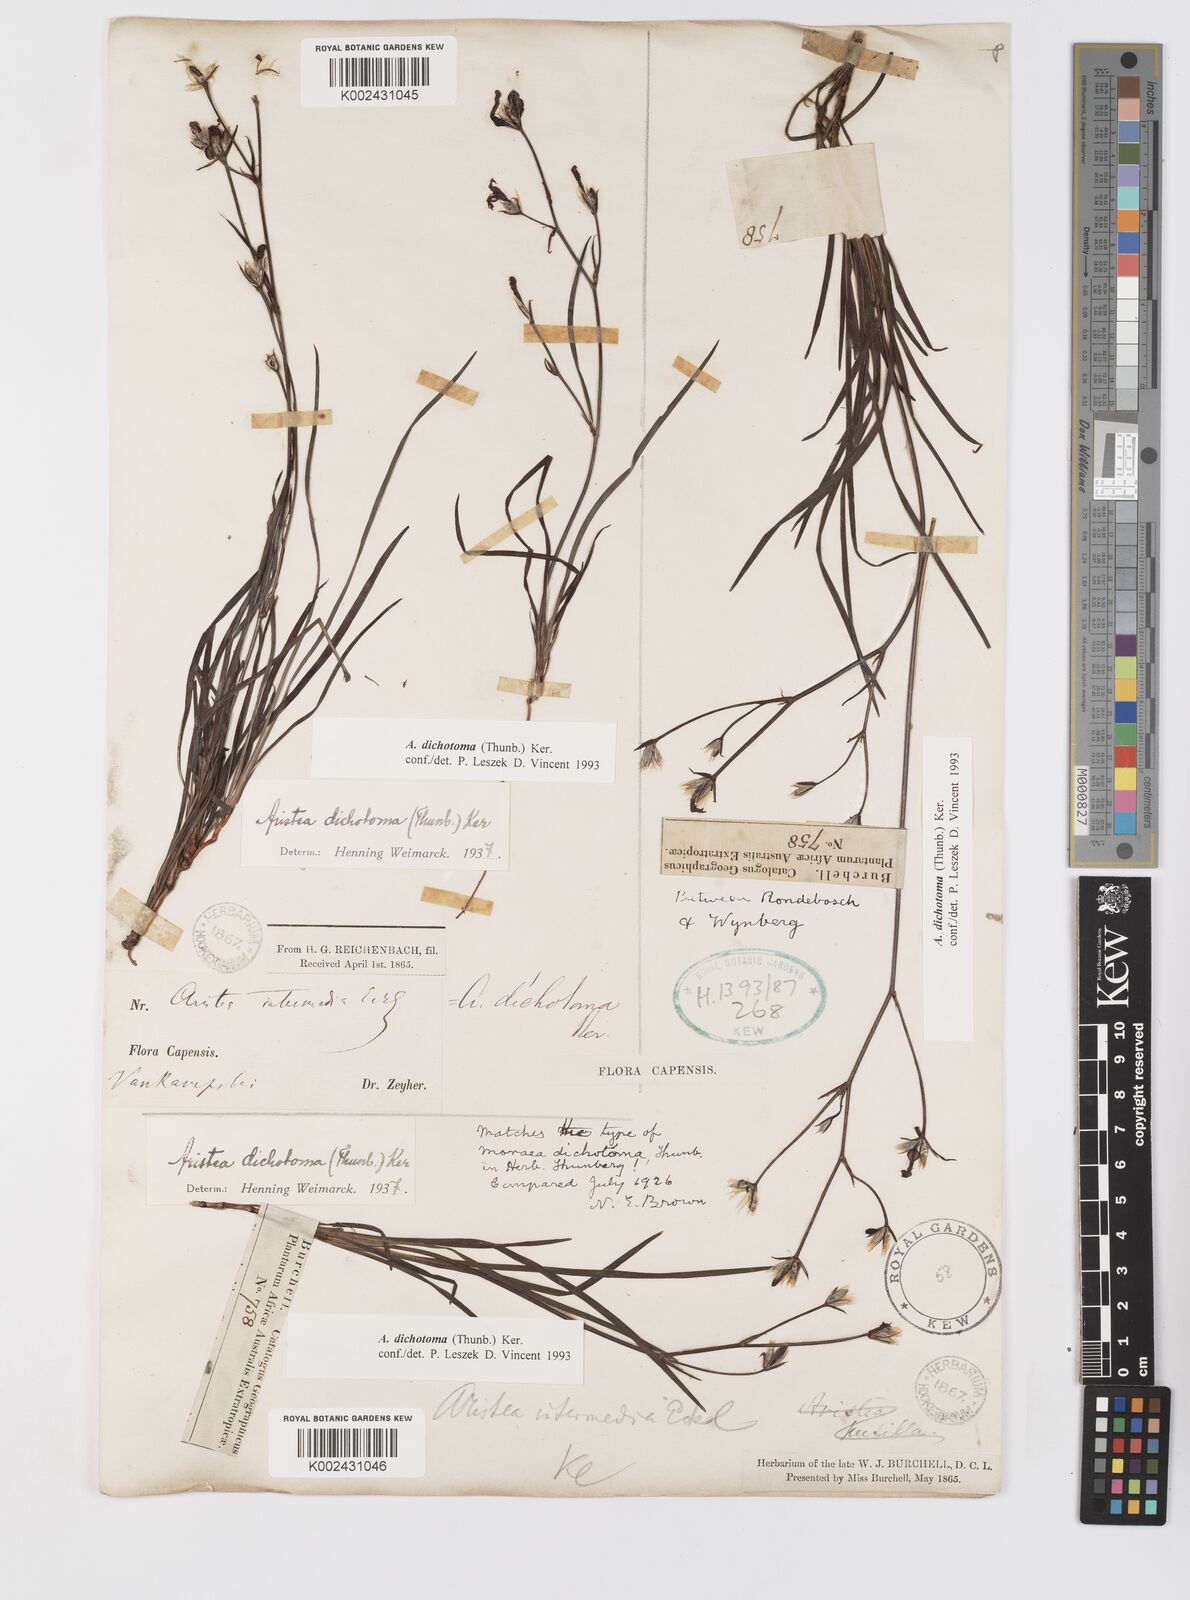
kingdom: Plantae
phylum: Tracheophyta
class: Liliopsida
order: Asparagales
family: Iridaceae
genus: Aristea
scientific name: Aristea dichotoma
